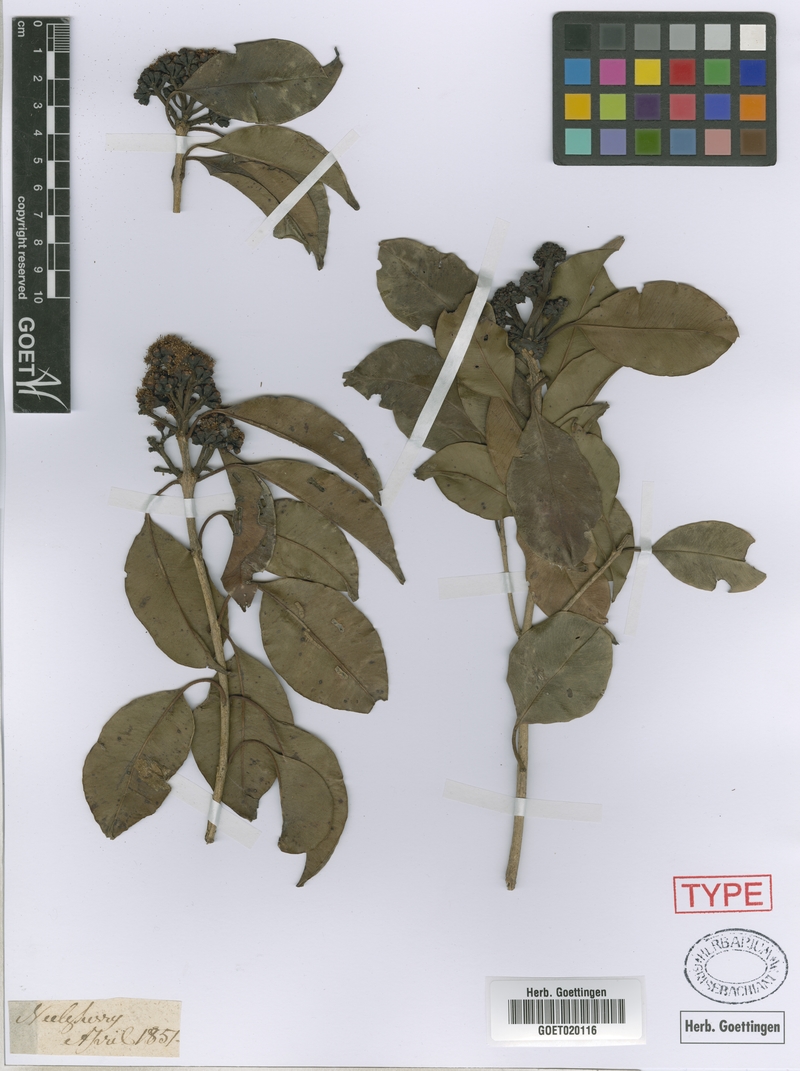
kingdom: Plantae
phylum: Tracheophyta
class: Magnoliopsida
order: Myrtales
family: Myrtaceae
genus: Syzygium
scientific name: Syzygium densiflorum
